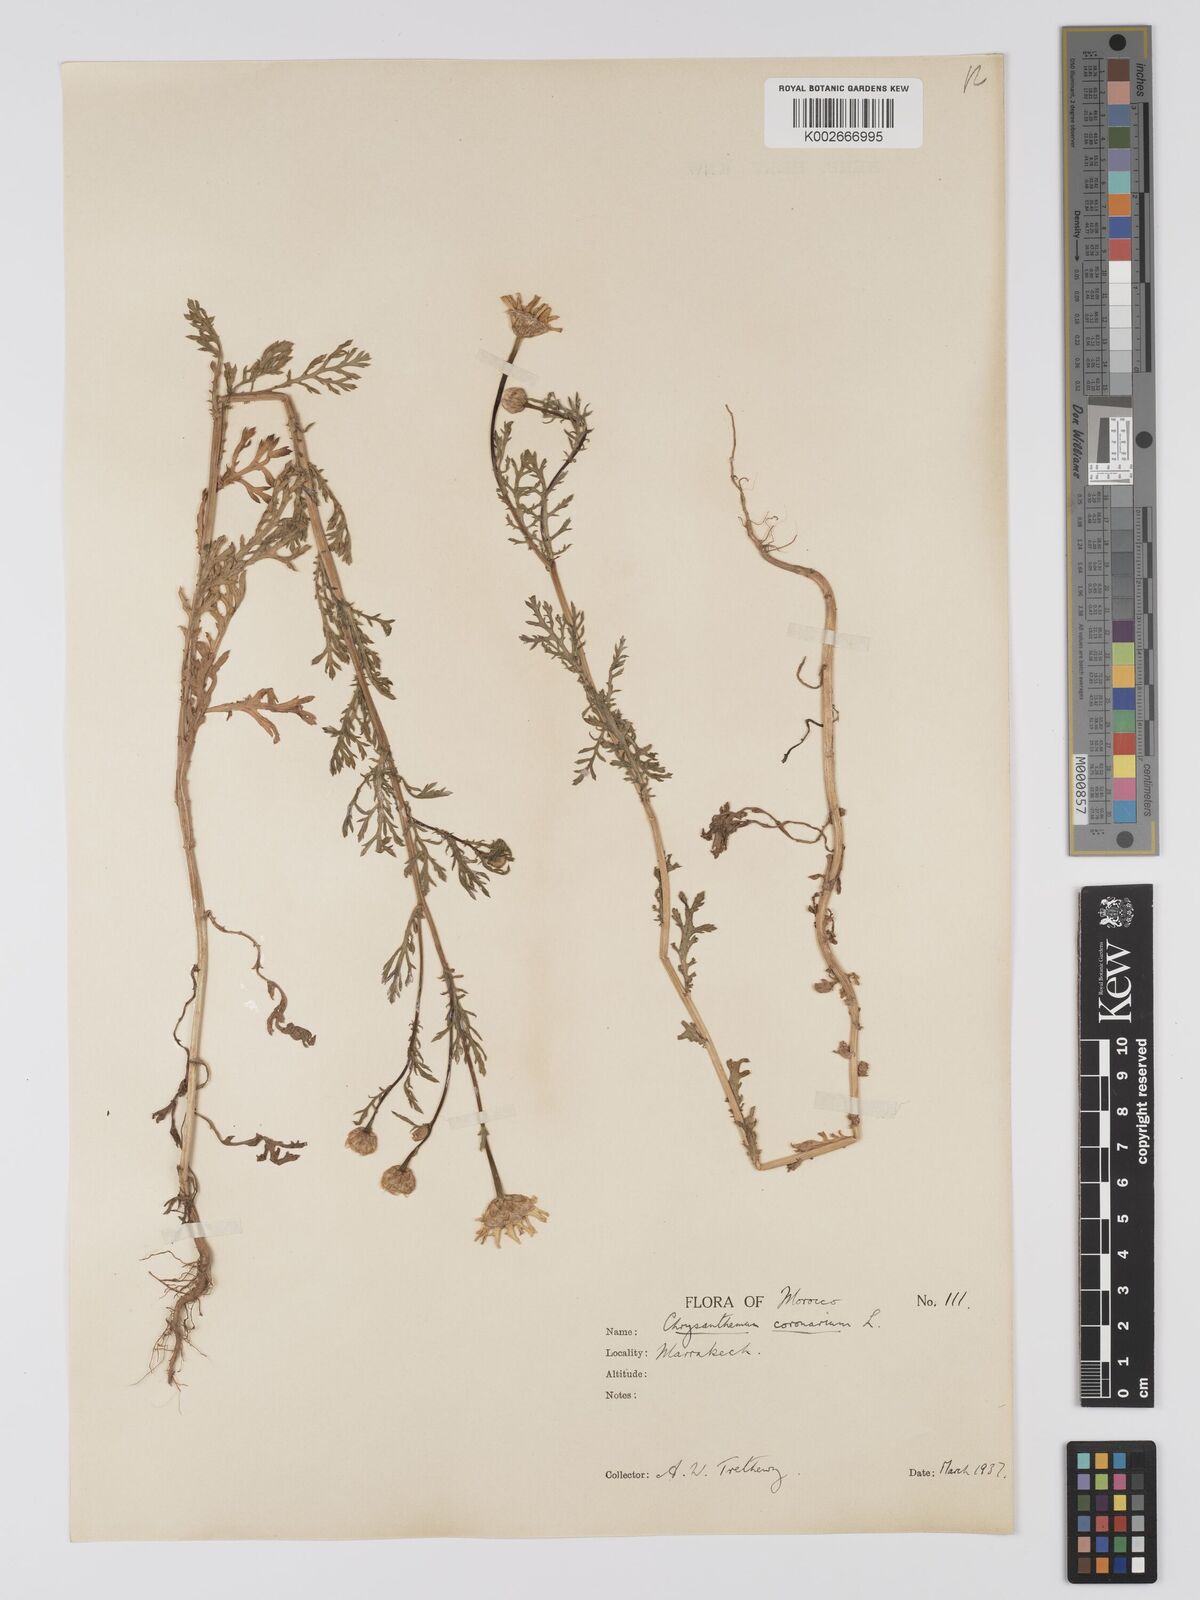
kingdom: Plantae
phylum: Tracheophyta
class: Magnoliopsida
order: Asterales
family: Asteraceae
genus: Glebionis
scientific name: Glebionis coronaria
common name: Crowndaisy
